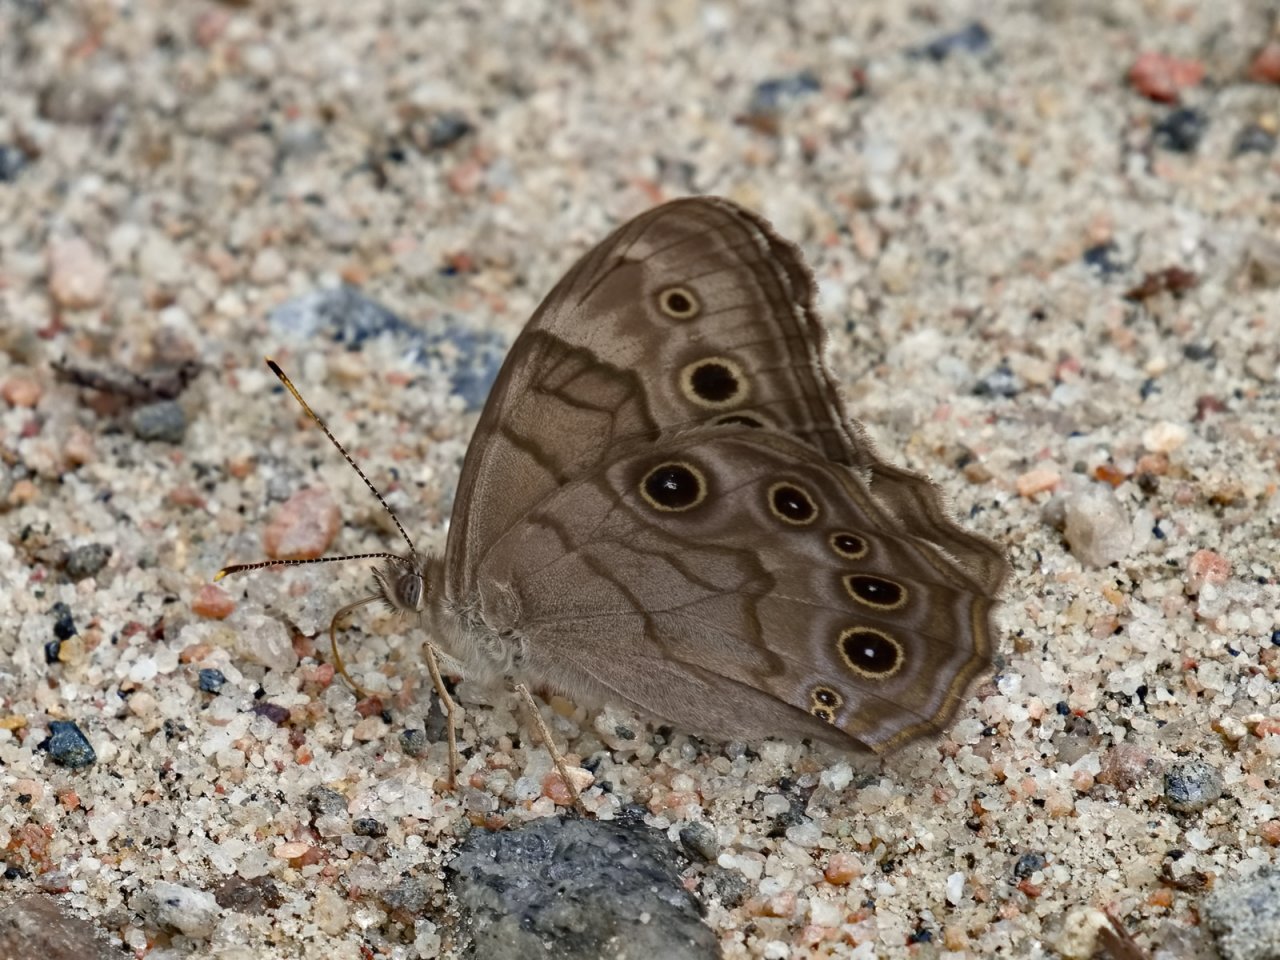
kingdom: Animalia
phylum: Arthropoda
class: Insecta
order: Lepidoptera
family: Nymphalidae
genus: Lethe
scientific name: Lethe anthedon
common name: Northern Pearly-Eye
